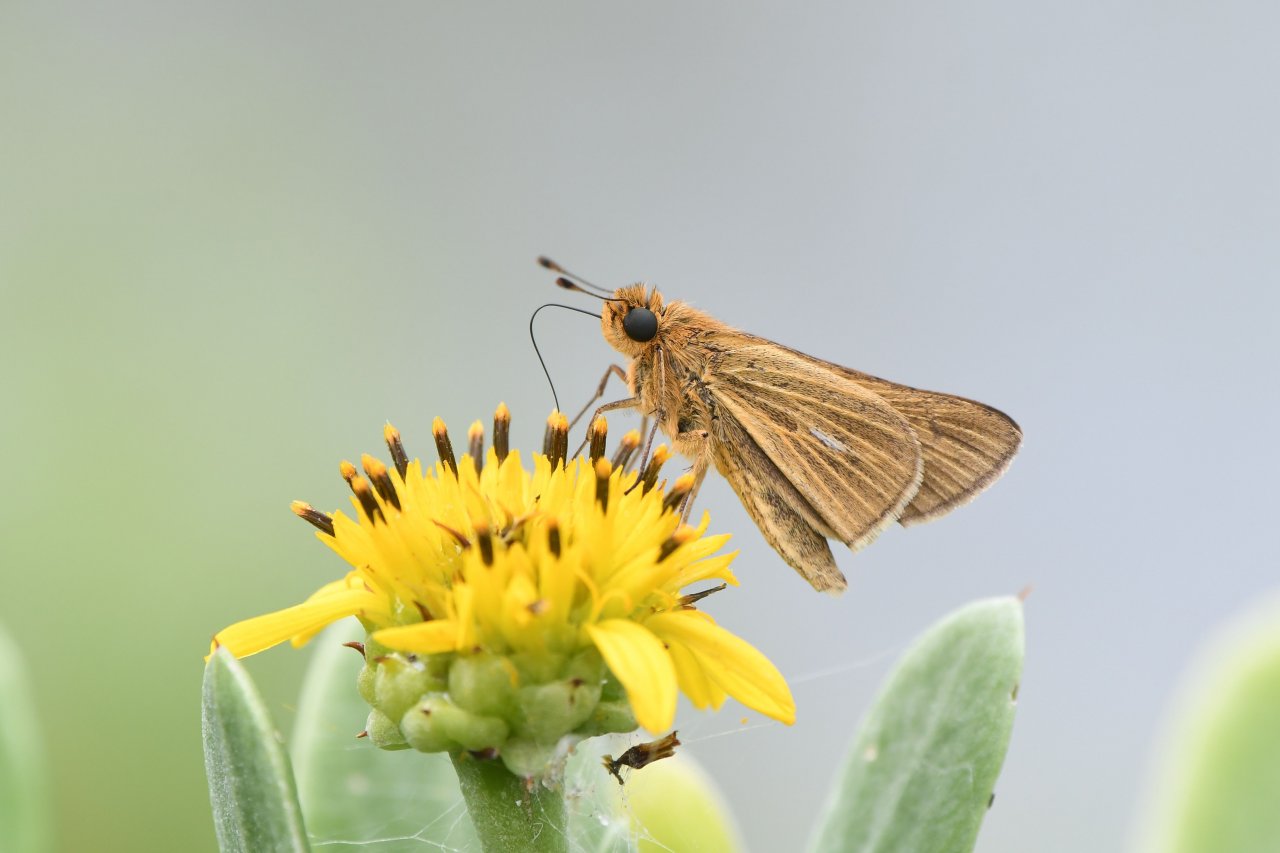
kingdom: Animalia
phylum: Arthropoda
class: Insecta
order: Lepidoptera
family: Hesperiidae
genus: Panoquina
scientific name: Panoquina panoquin
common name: Salt Marsh Skipper
